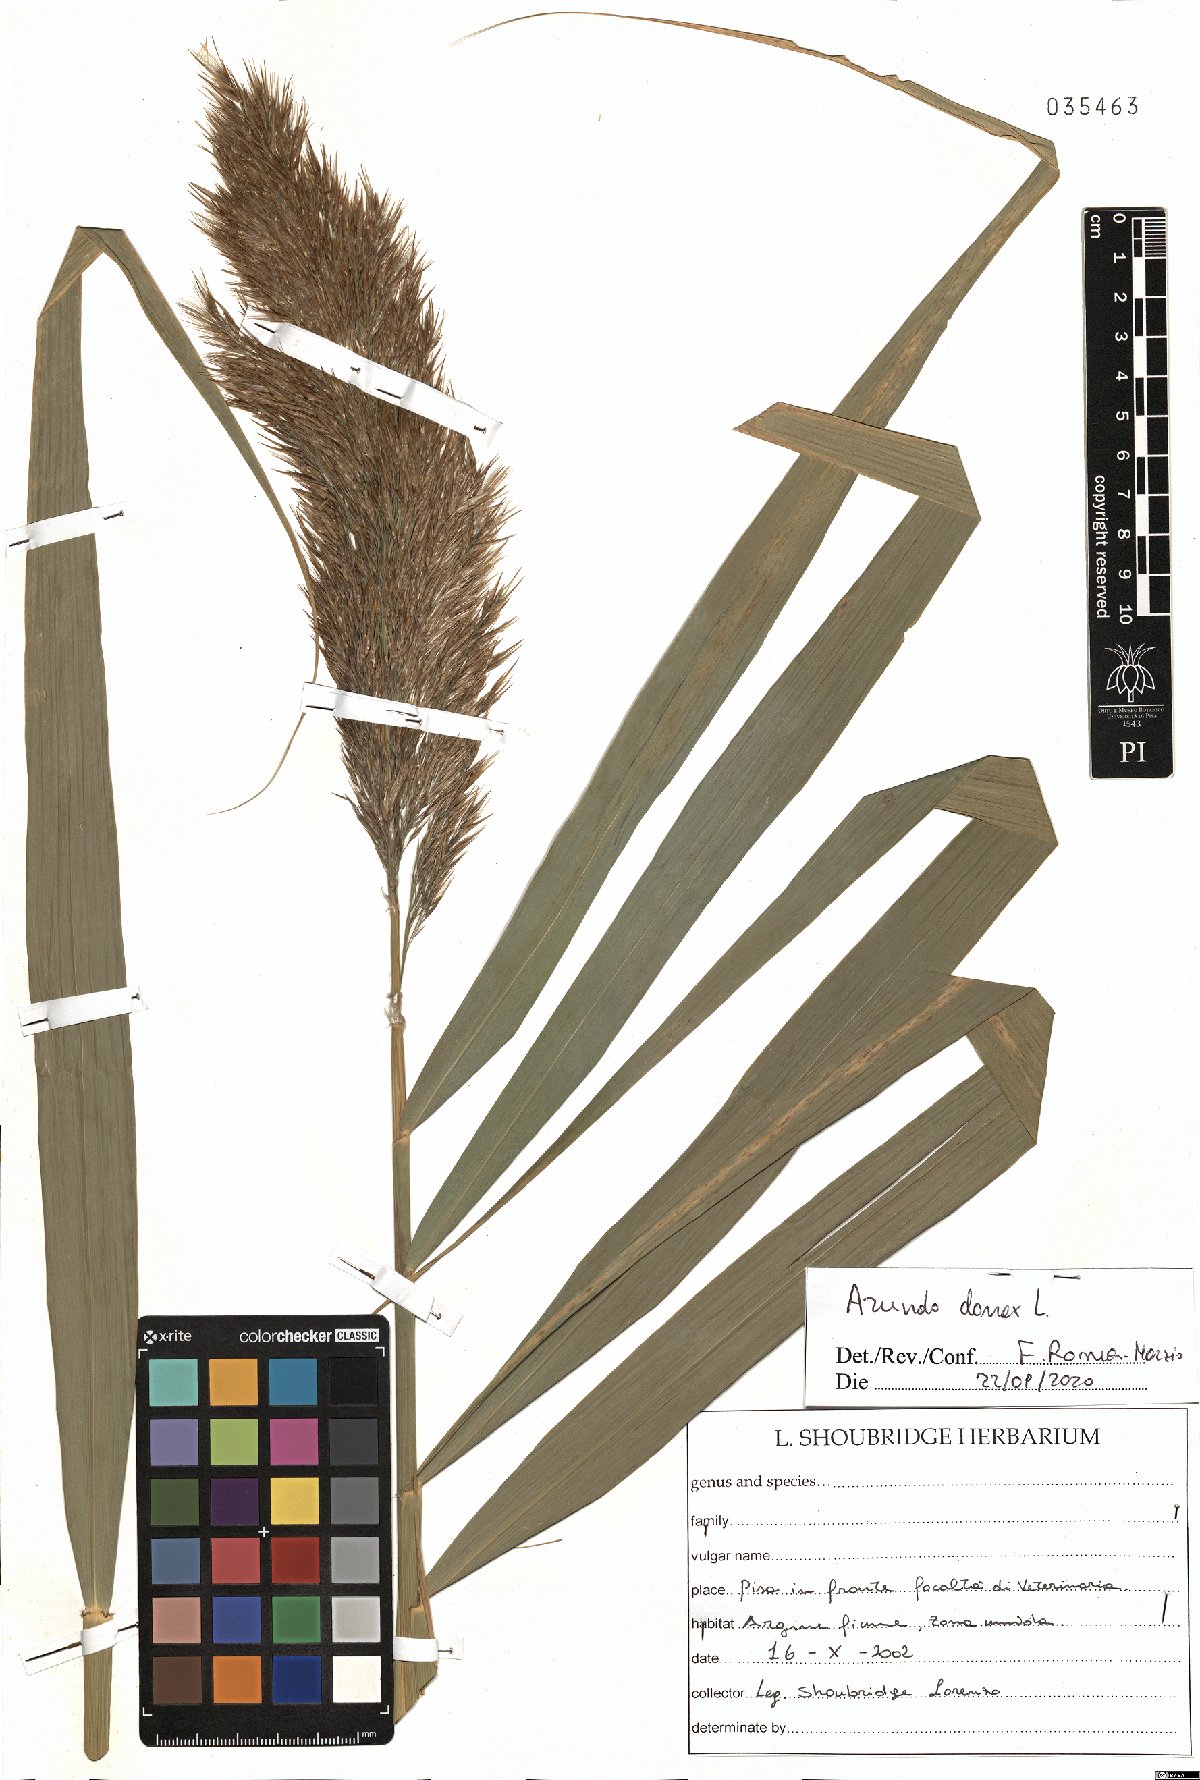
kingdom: Plantae
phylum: Tracheophyta
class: Liliopsida
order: Poales
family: Poaceae
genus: Arundo
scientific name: Arundo donax
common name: Giant reed
